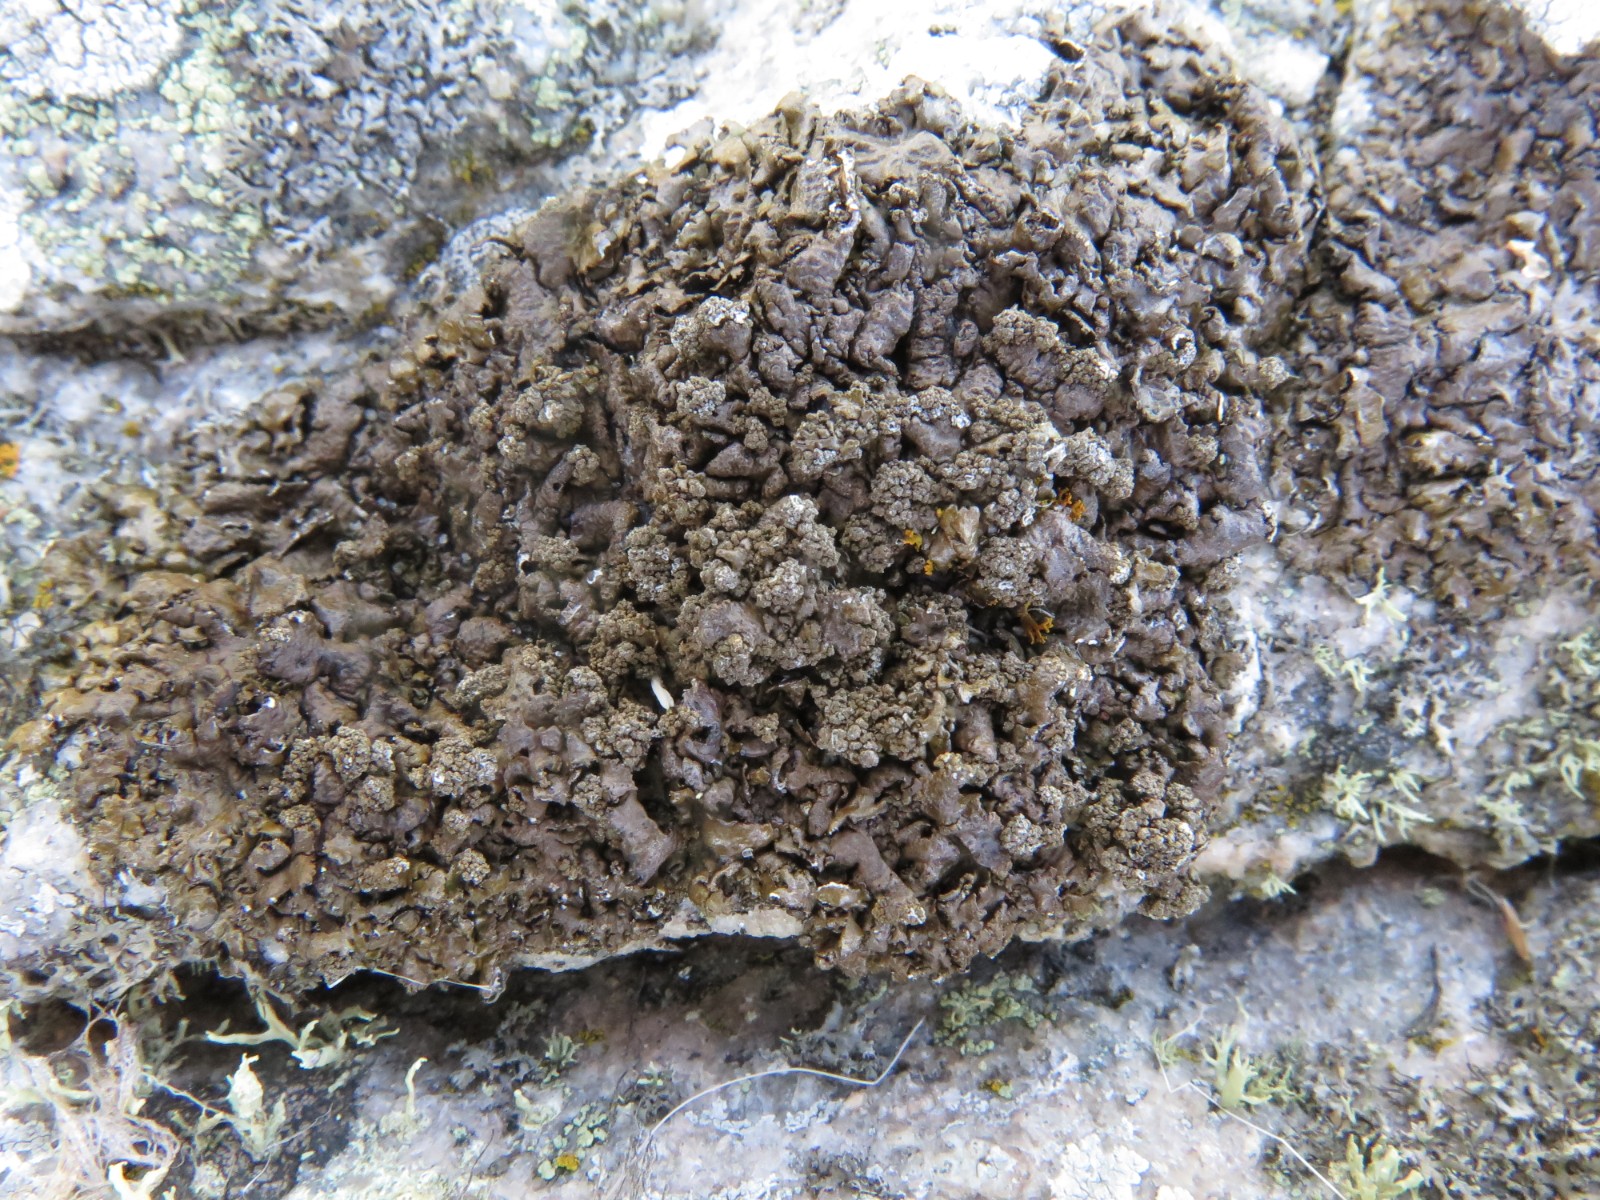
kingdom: Fungi
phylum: Ascomycota
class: Lecanoromycetes
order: Lecanorales
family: Parmeliaceae
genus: Xanthoparmelia
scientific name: Xanthoparmelia loxodes
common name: knudret skållav
